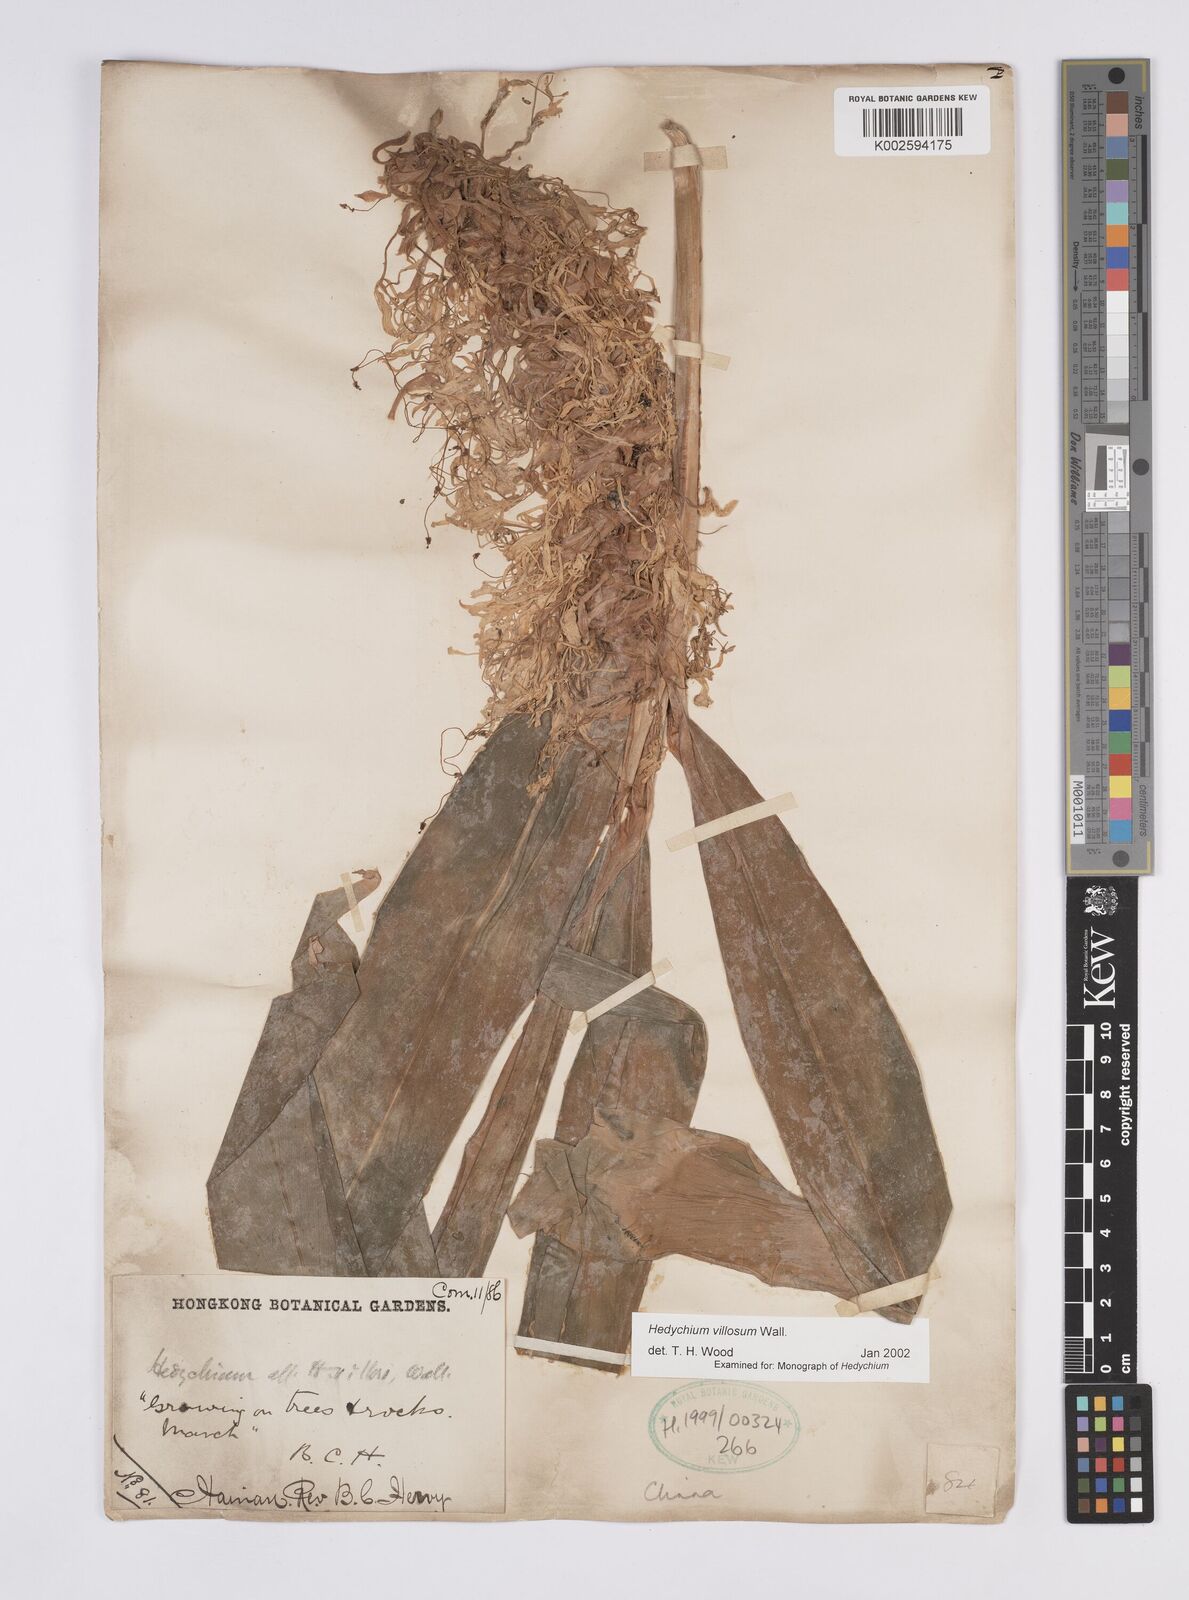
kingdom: Plantae
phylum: Tracheophyta
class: Liliopsida
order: Zingiberales
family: Zingiberaceae
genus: Hedychium
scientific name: Hedychium villosum
